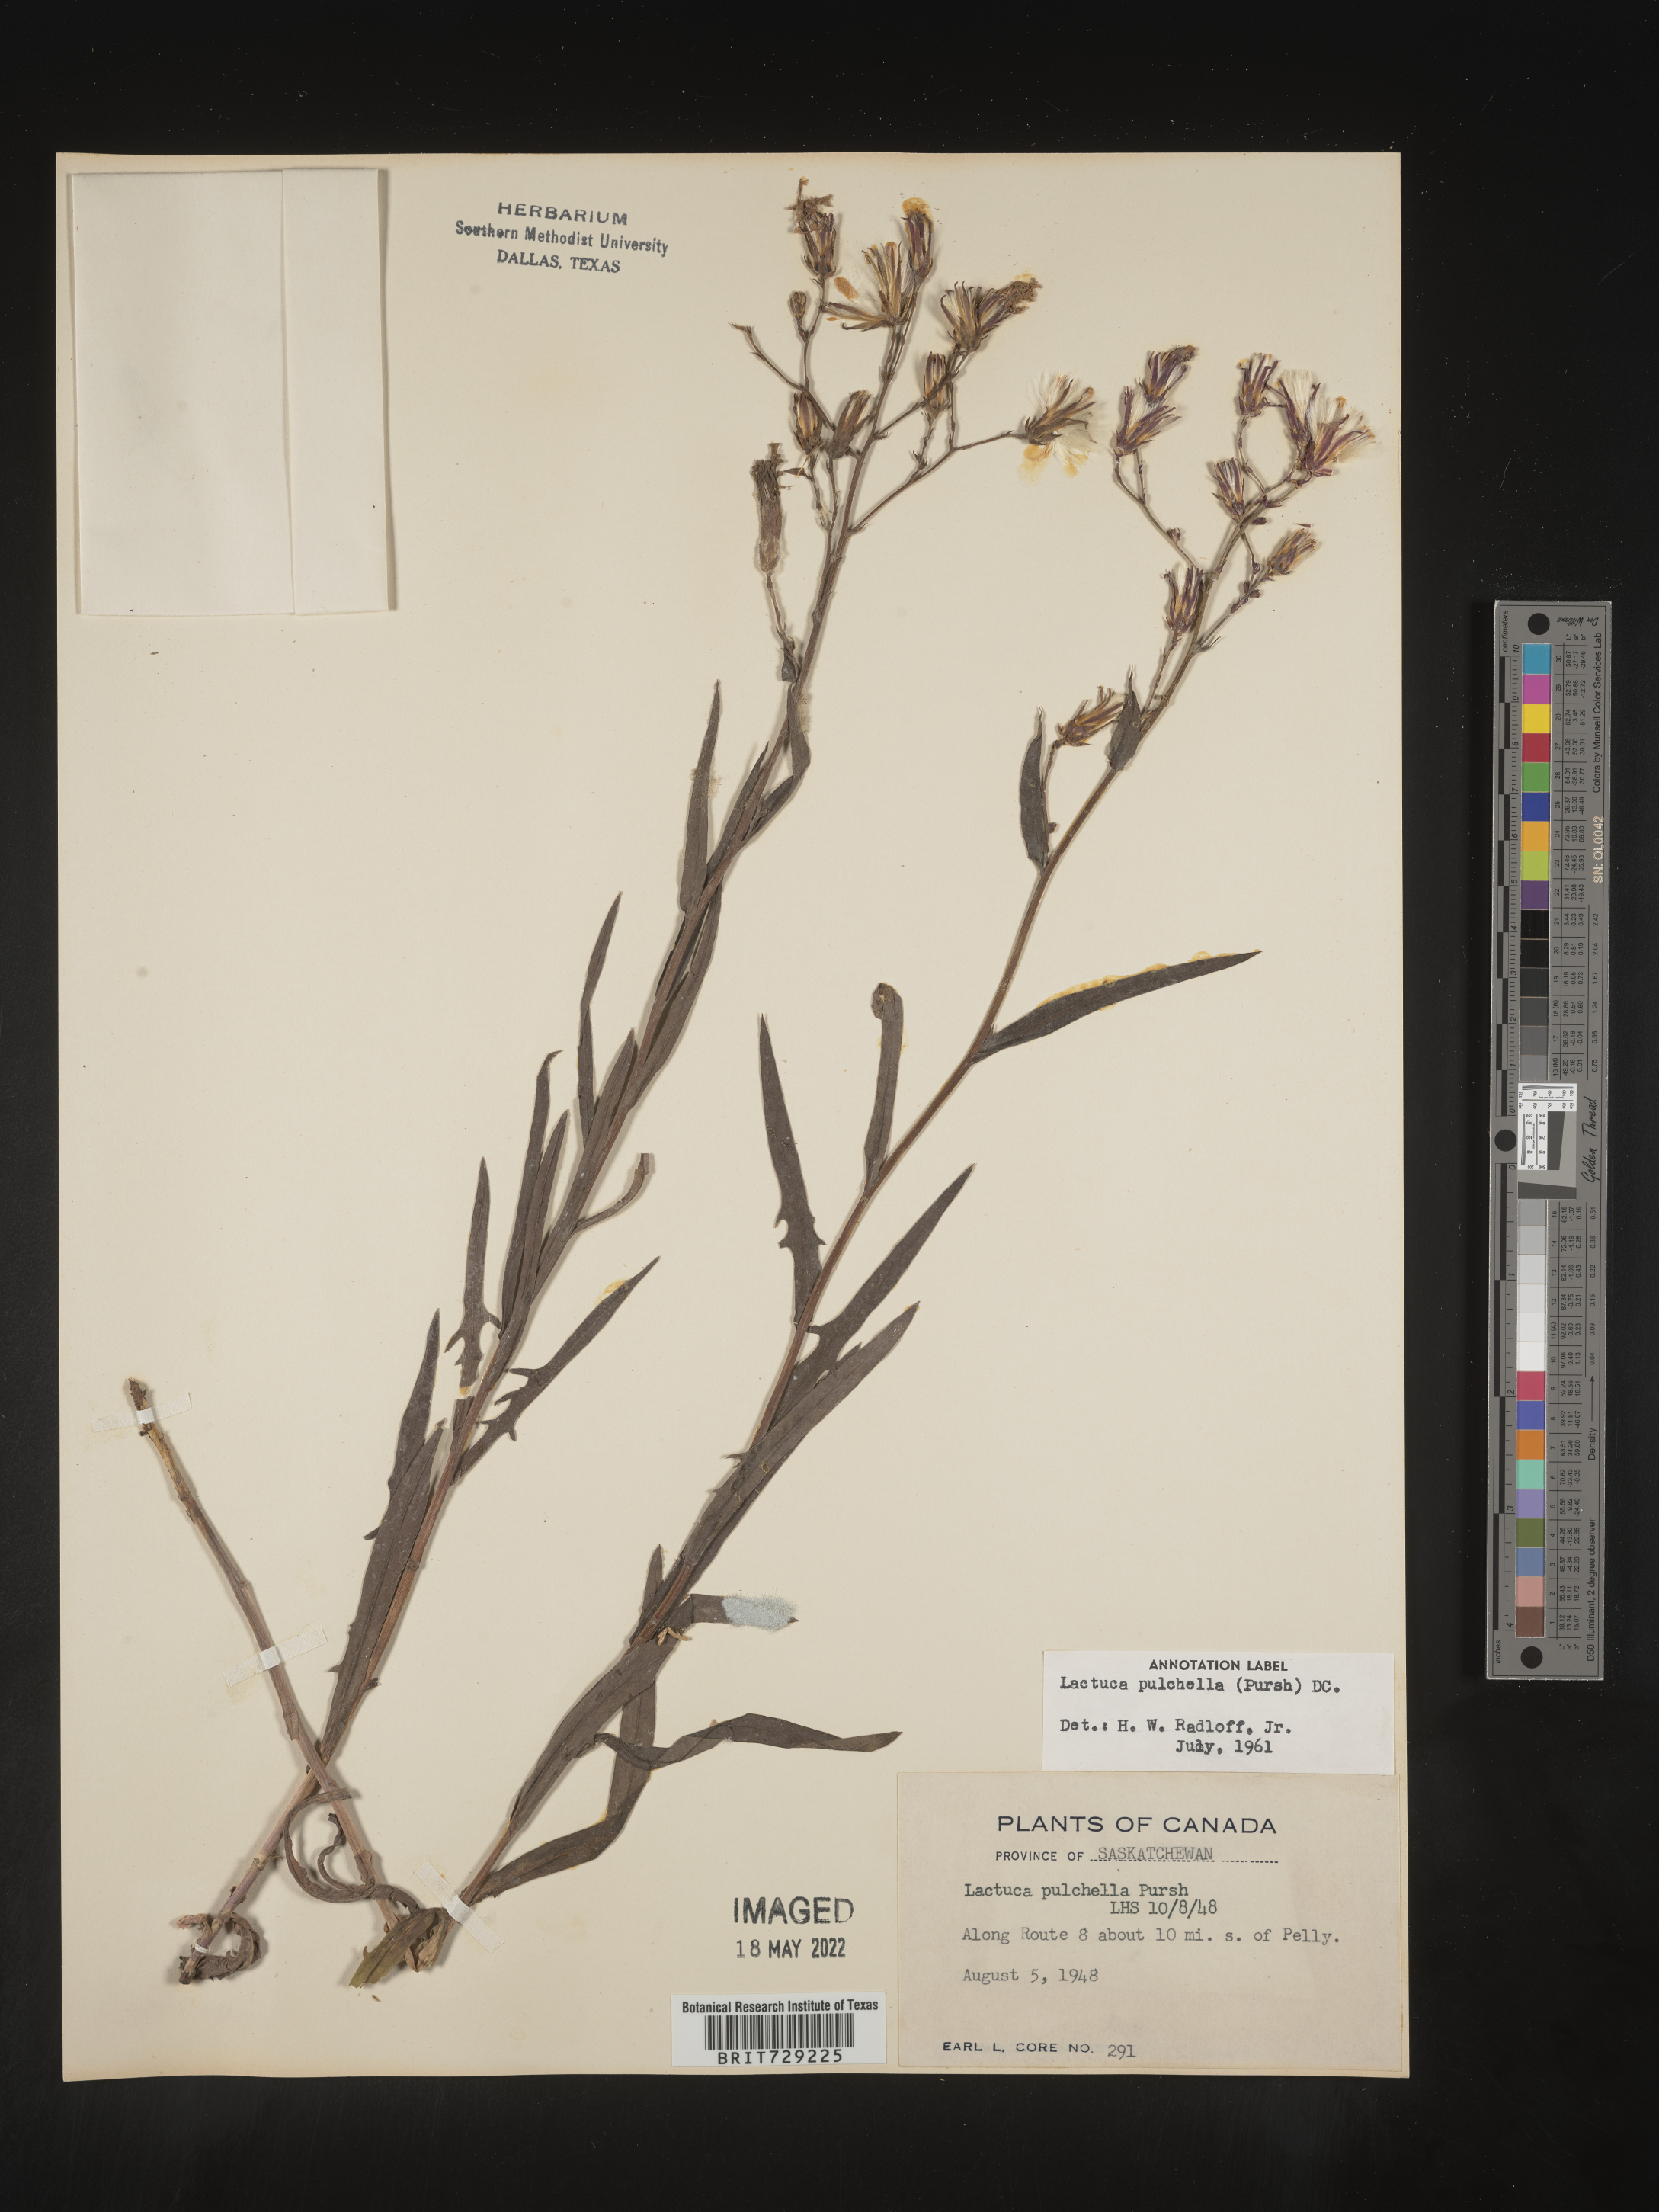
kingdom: Plantae
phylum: Tracheophyta
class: Magnoliopsida
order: Asterales
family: Asteraceae
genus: Lactuca
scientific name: Lactuca
